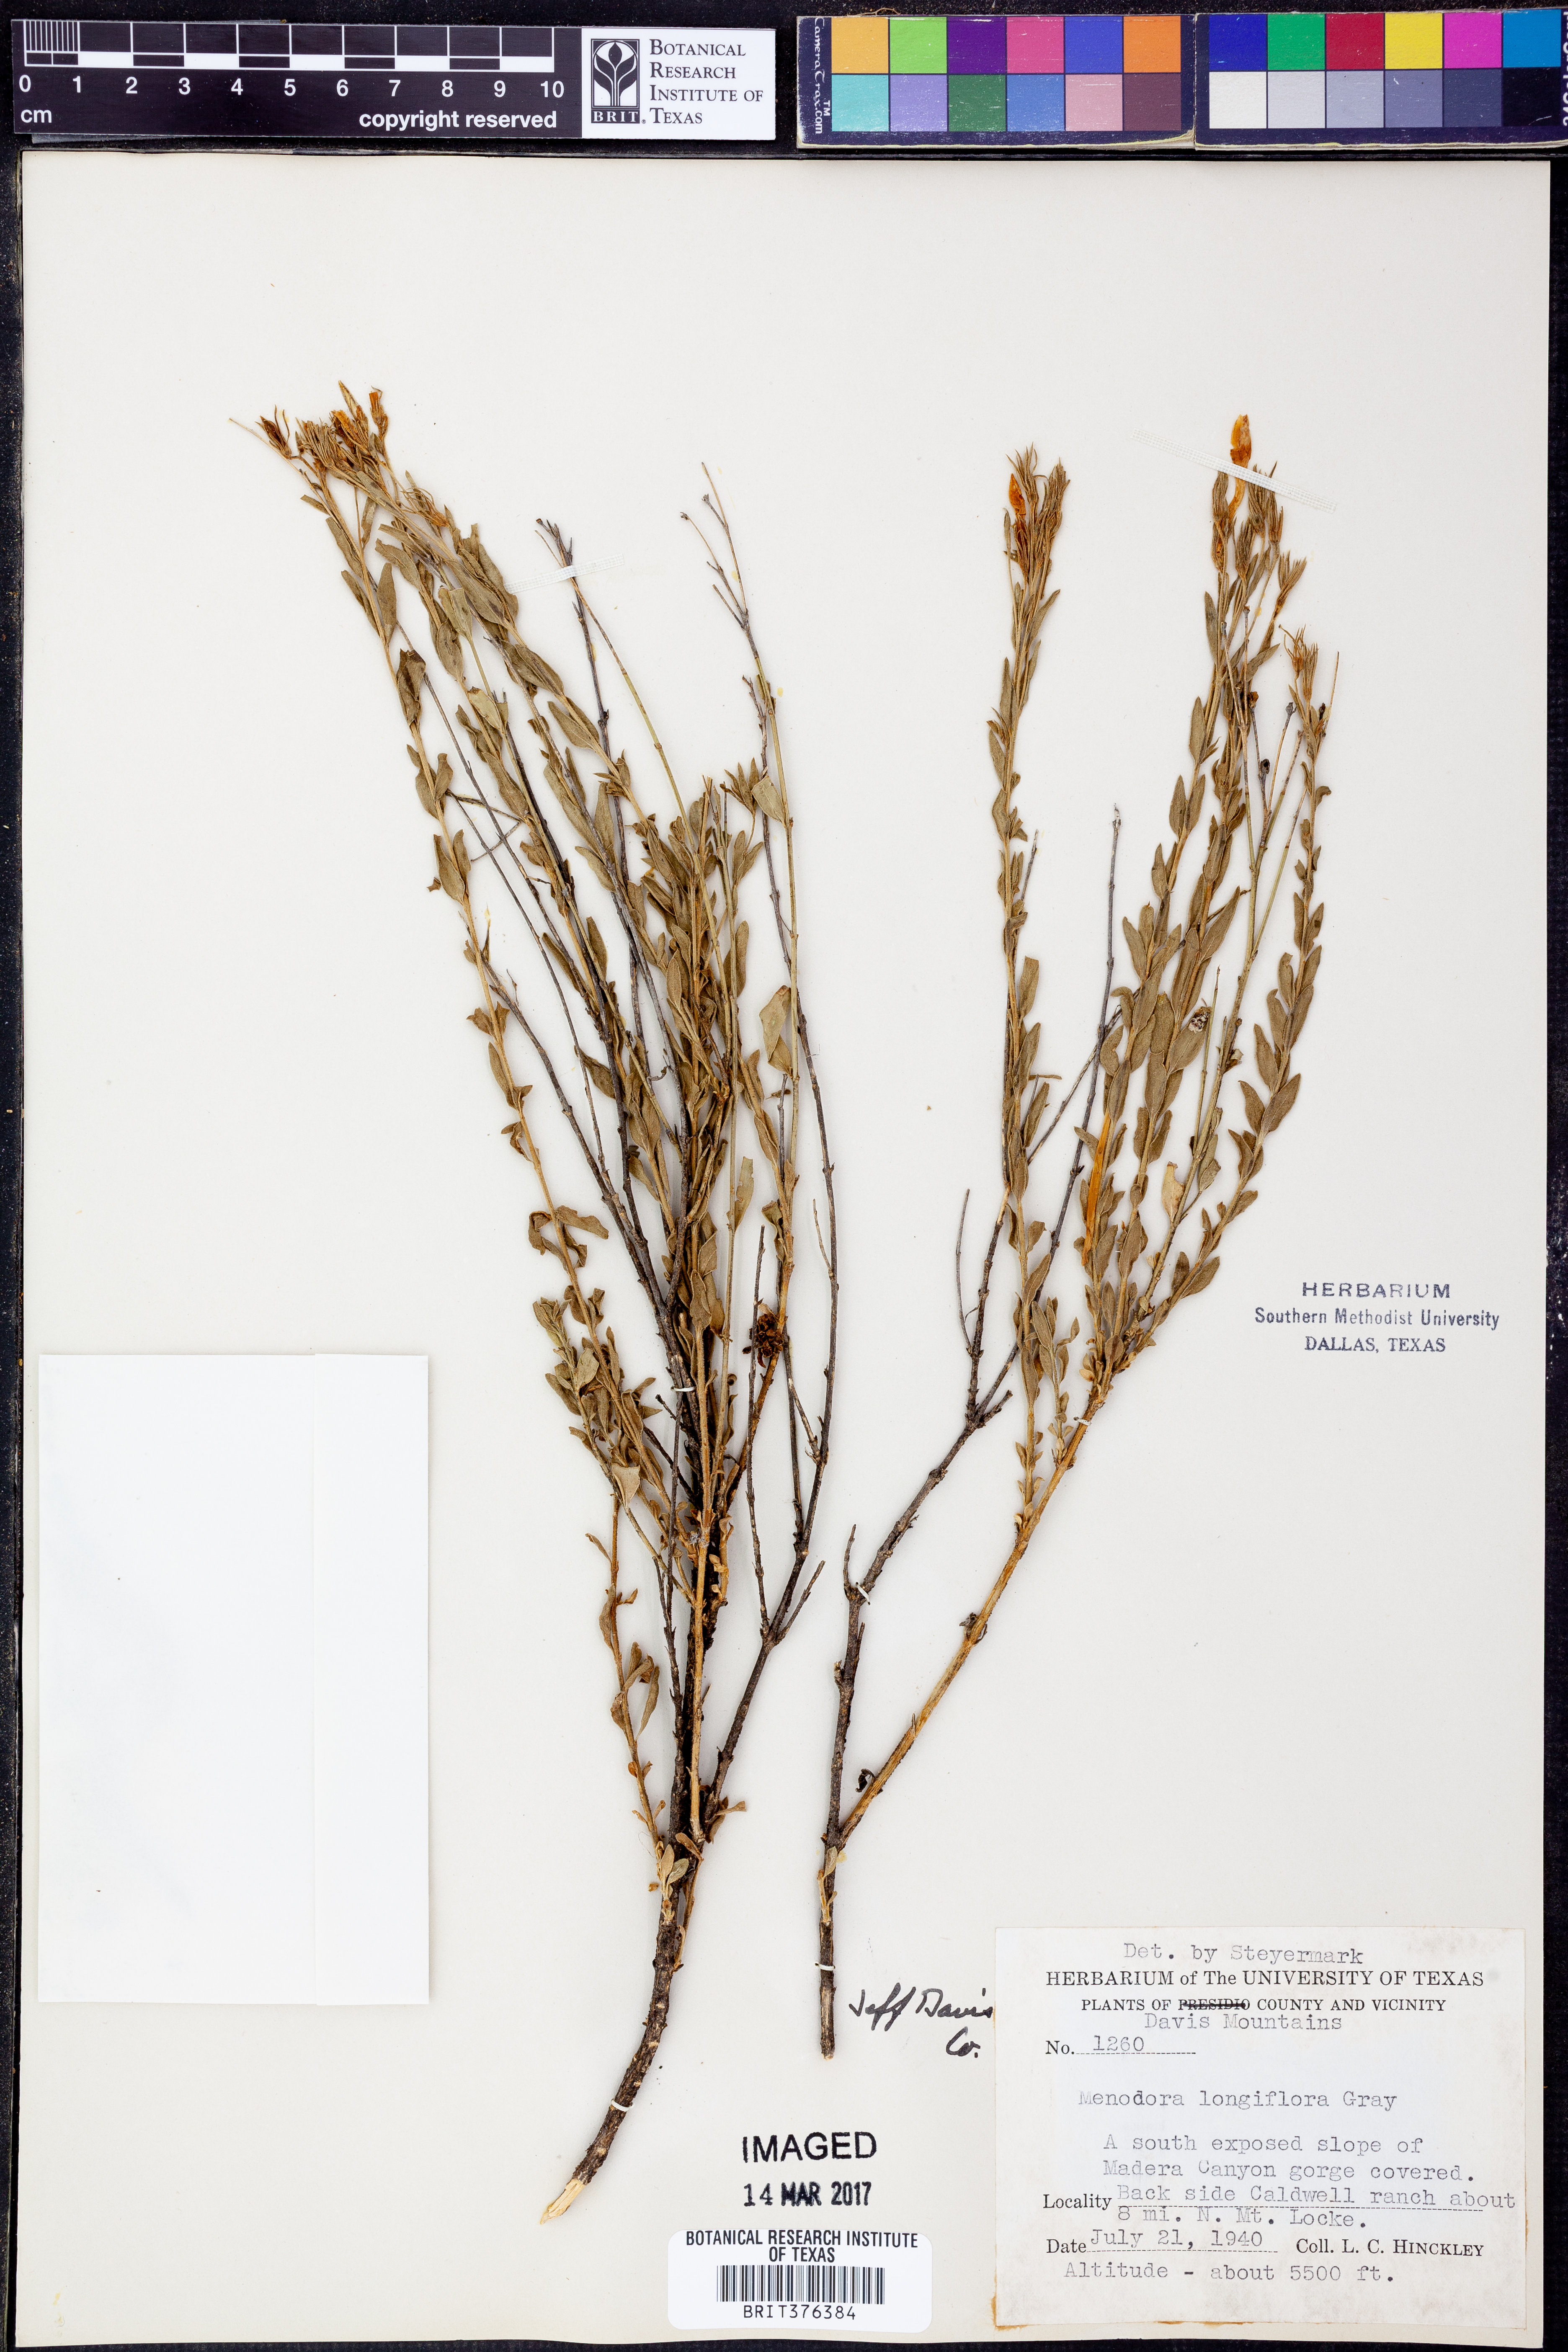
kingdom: Plantae
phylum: Tracheophyta
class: Magnoliopsida
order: Lamiales
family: Oleaceae
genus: Menodora
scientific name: Menodora longiflora
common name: Showy menodora
